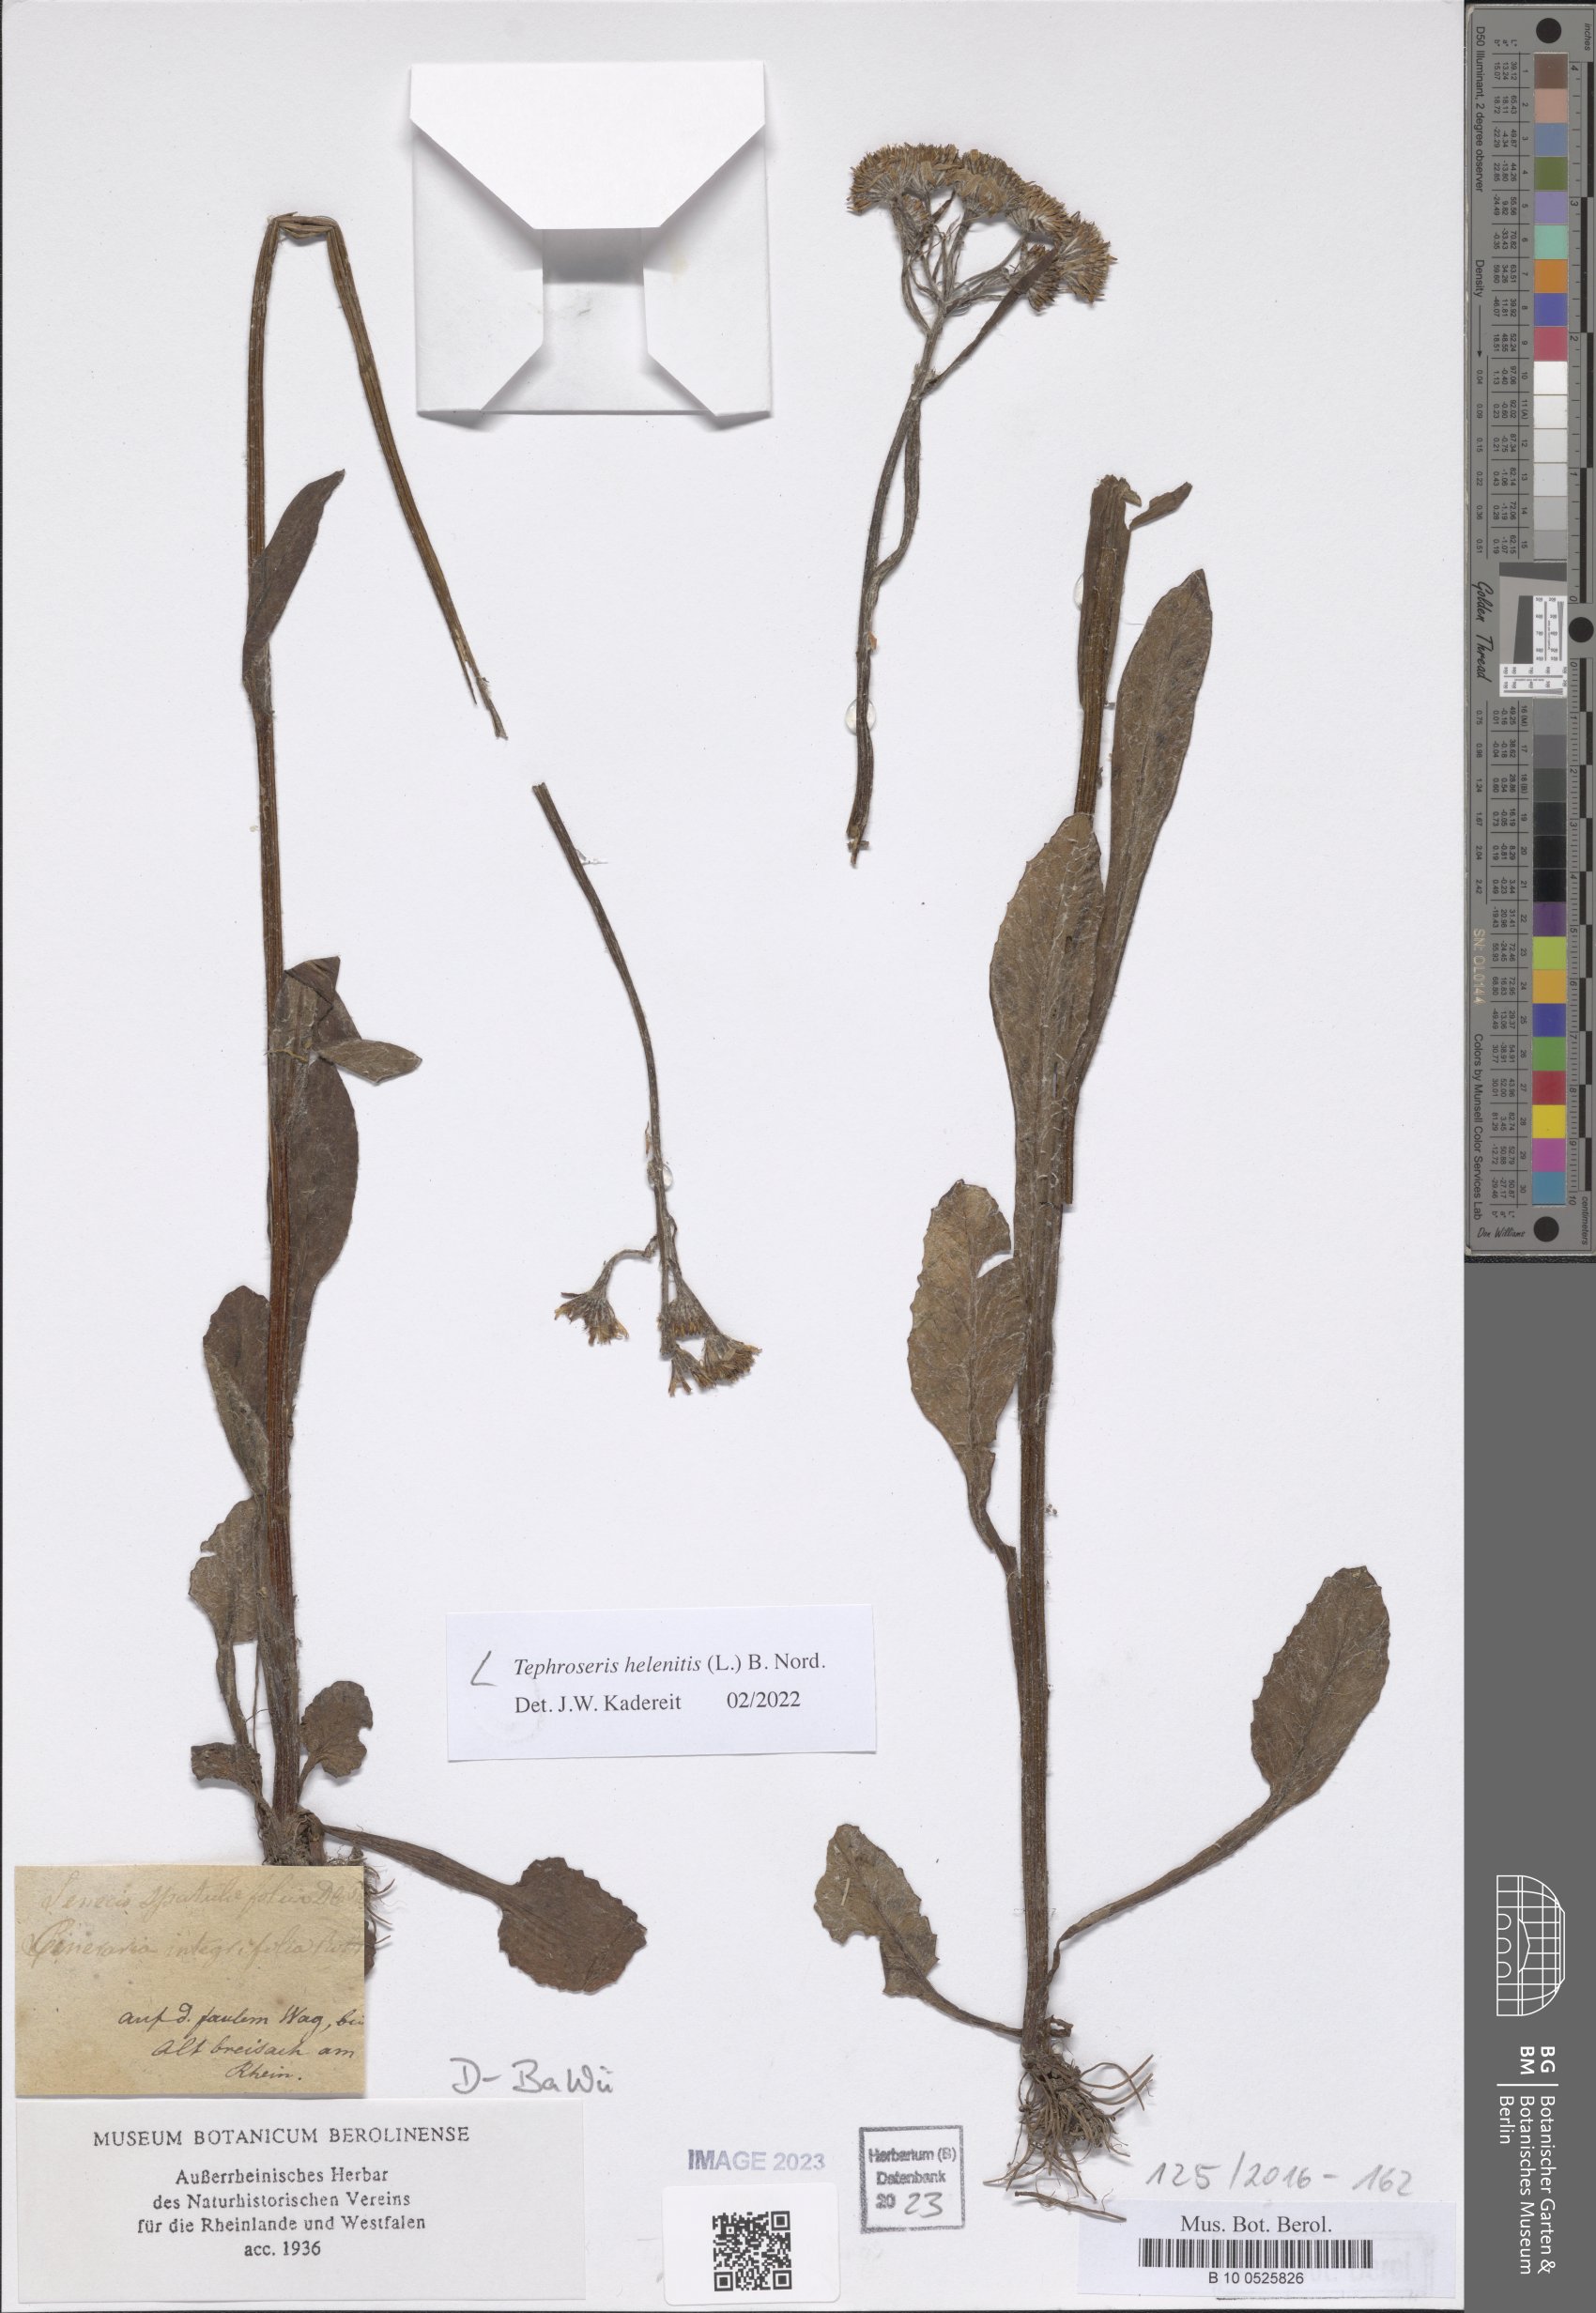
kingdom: Plantae
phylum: Tracheophyta
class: Magnoliopsida
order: Asterales
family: Asteraceae
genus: Tephroseris
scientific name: Tephroseris helenitis
